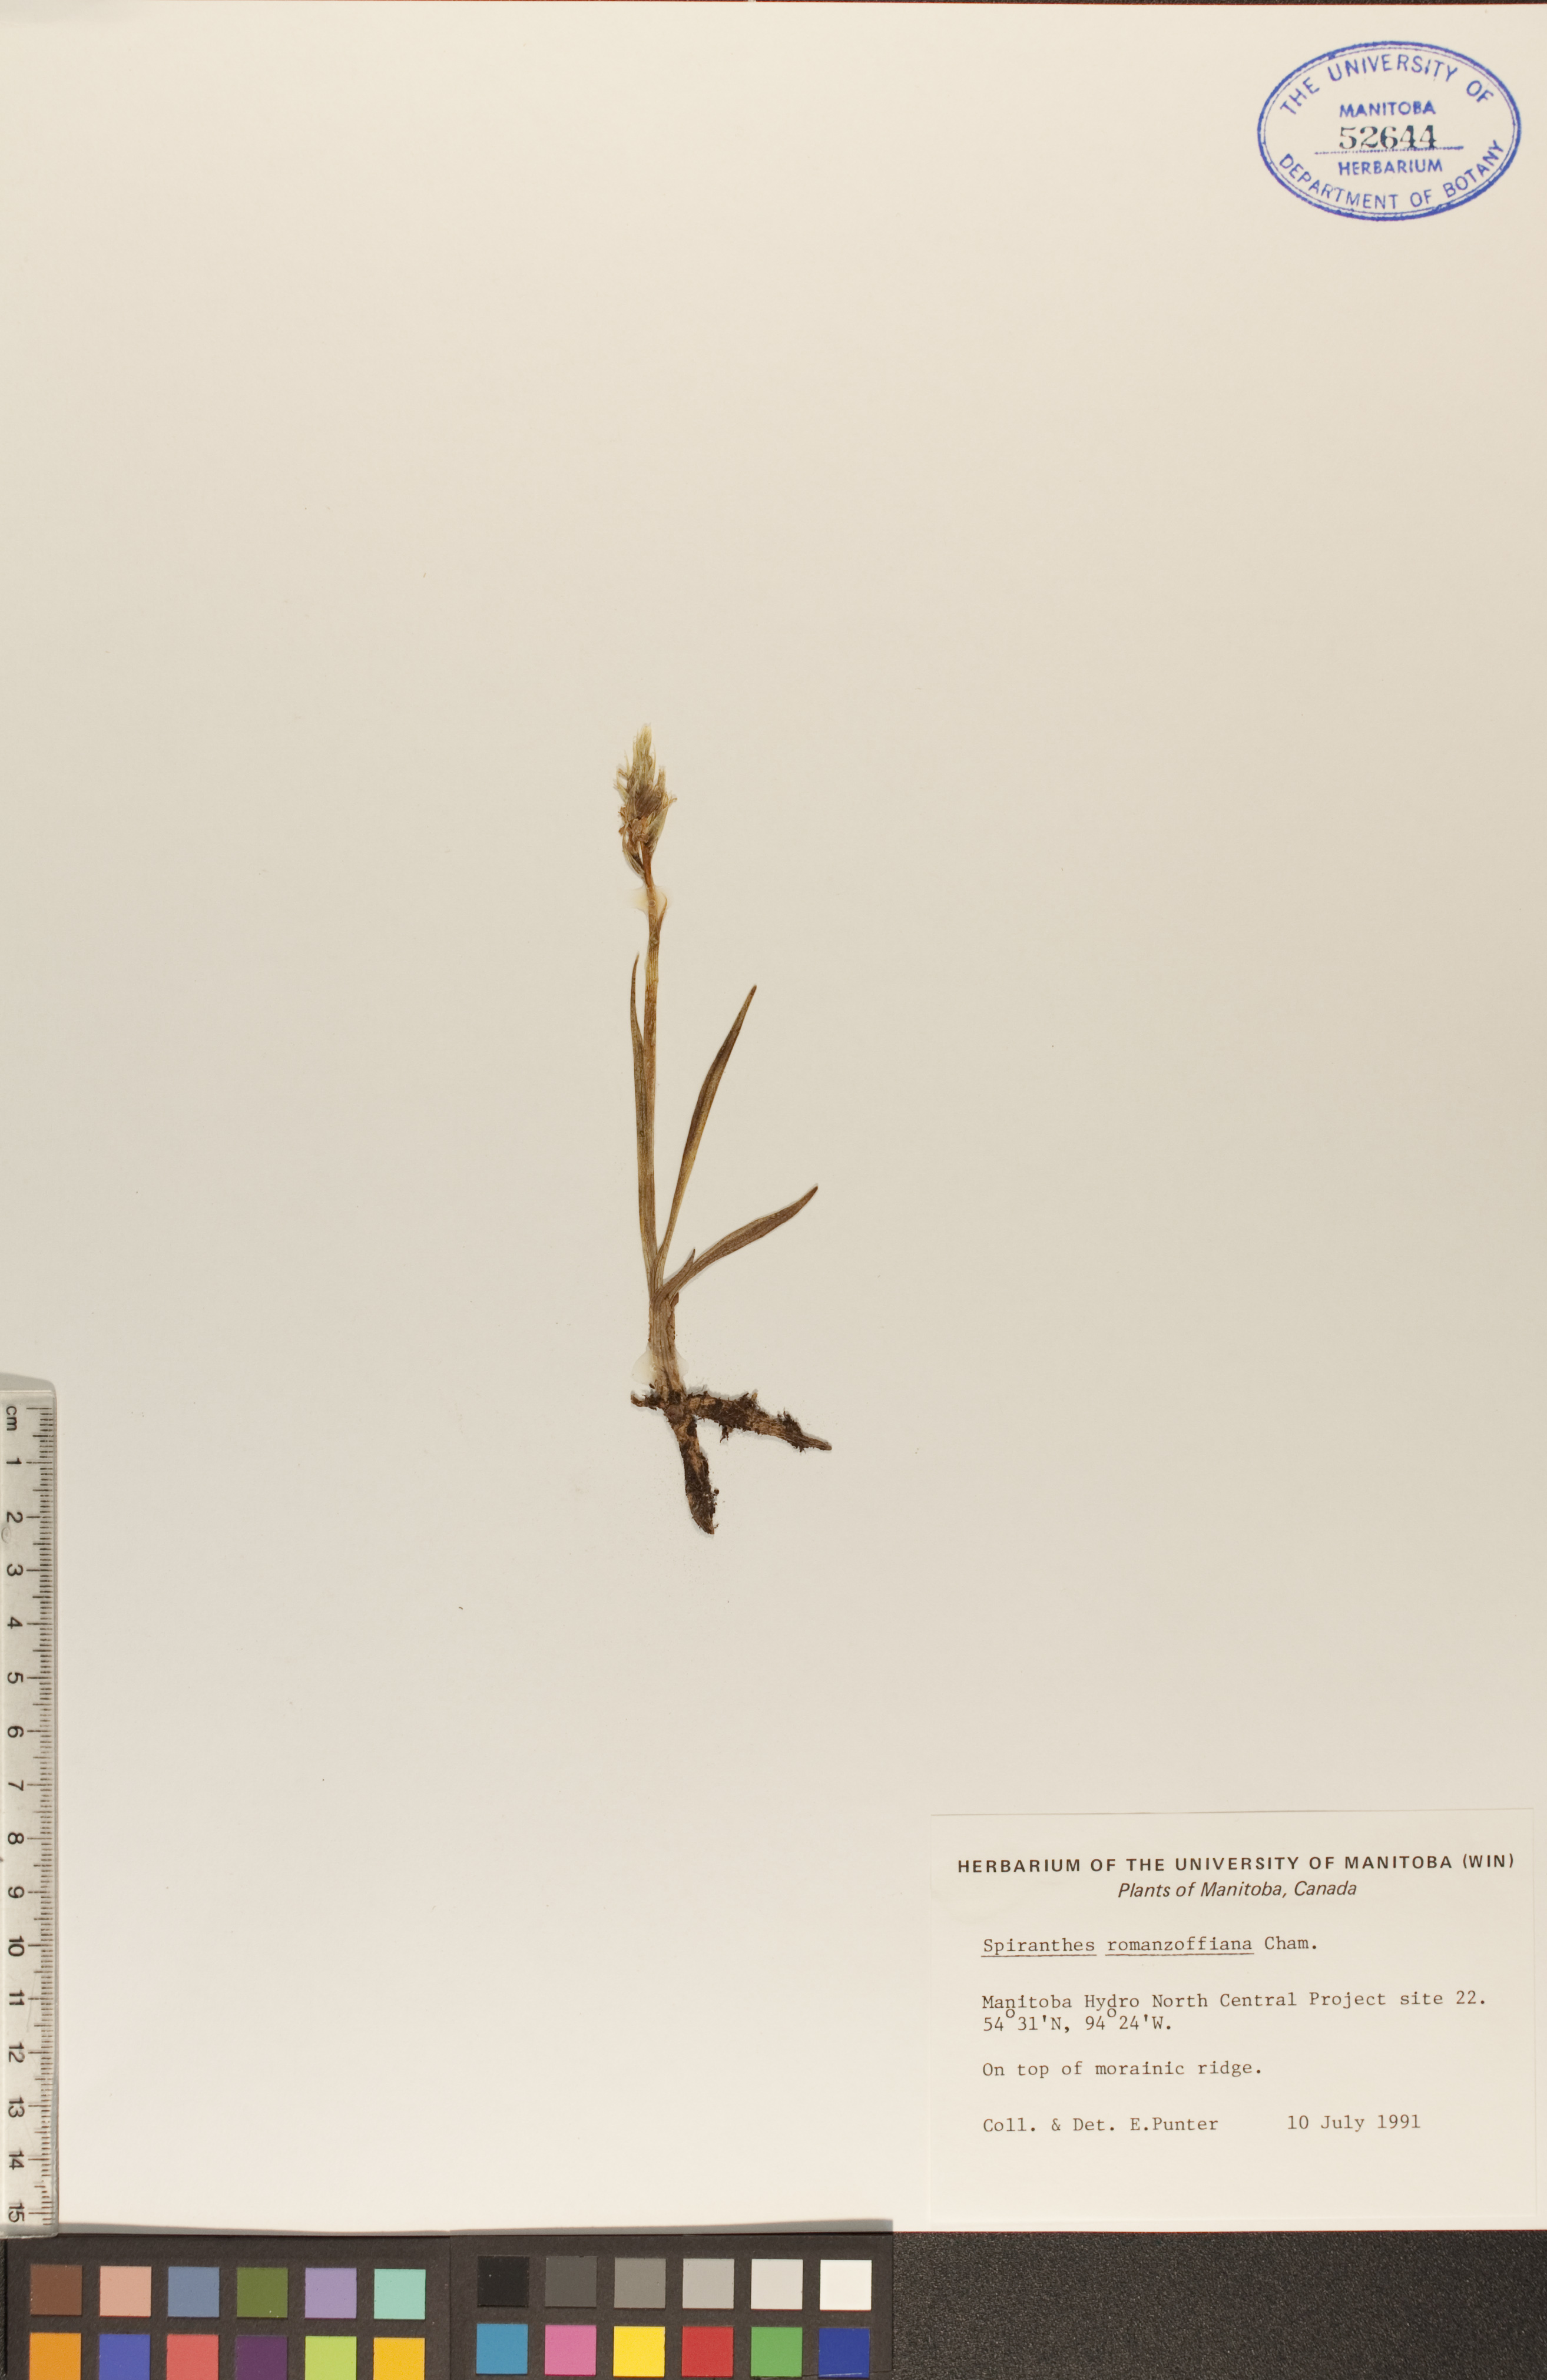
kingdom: Plantae
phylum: Tracheophyta
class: Liliopsida
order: Asparagales
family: Orchidaceae
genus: Spiranthes
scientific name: Spiranthes romanzoffiana
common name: Irish lady's-tresses
